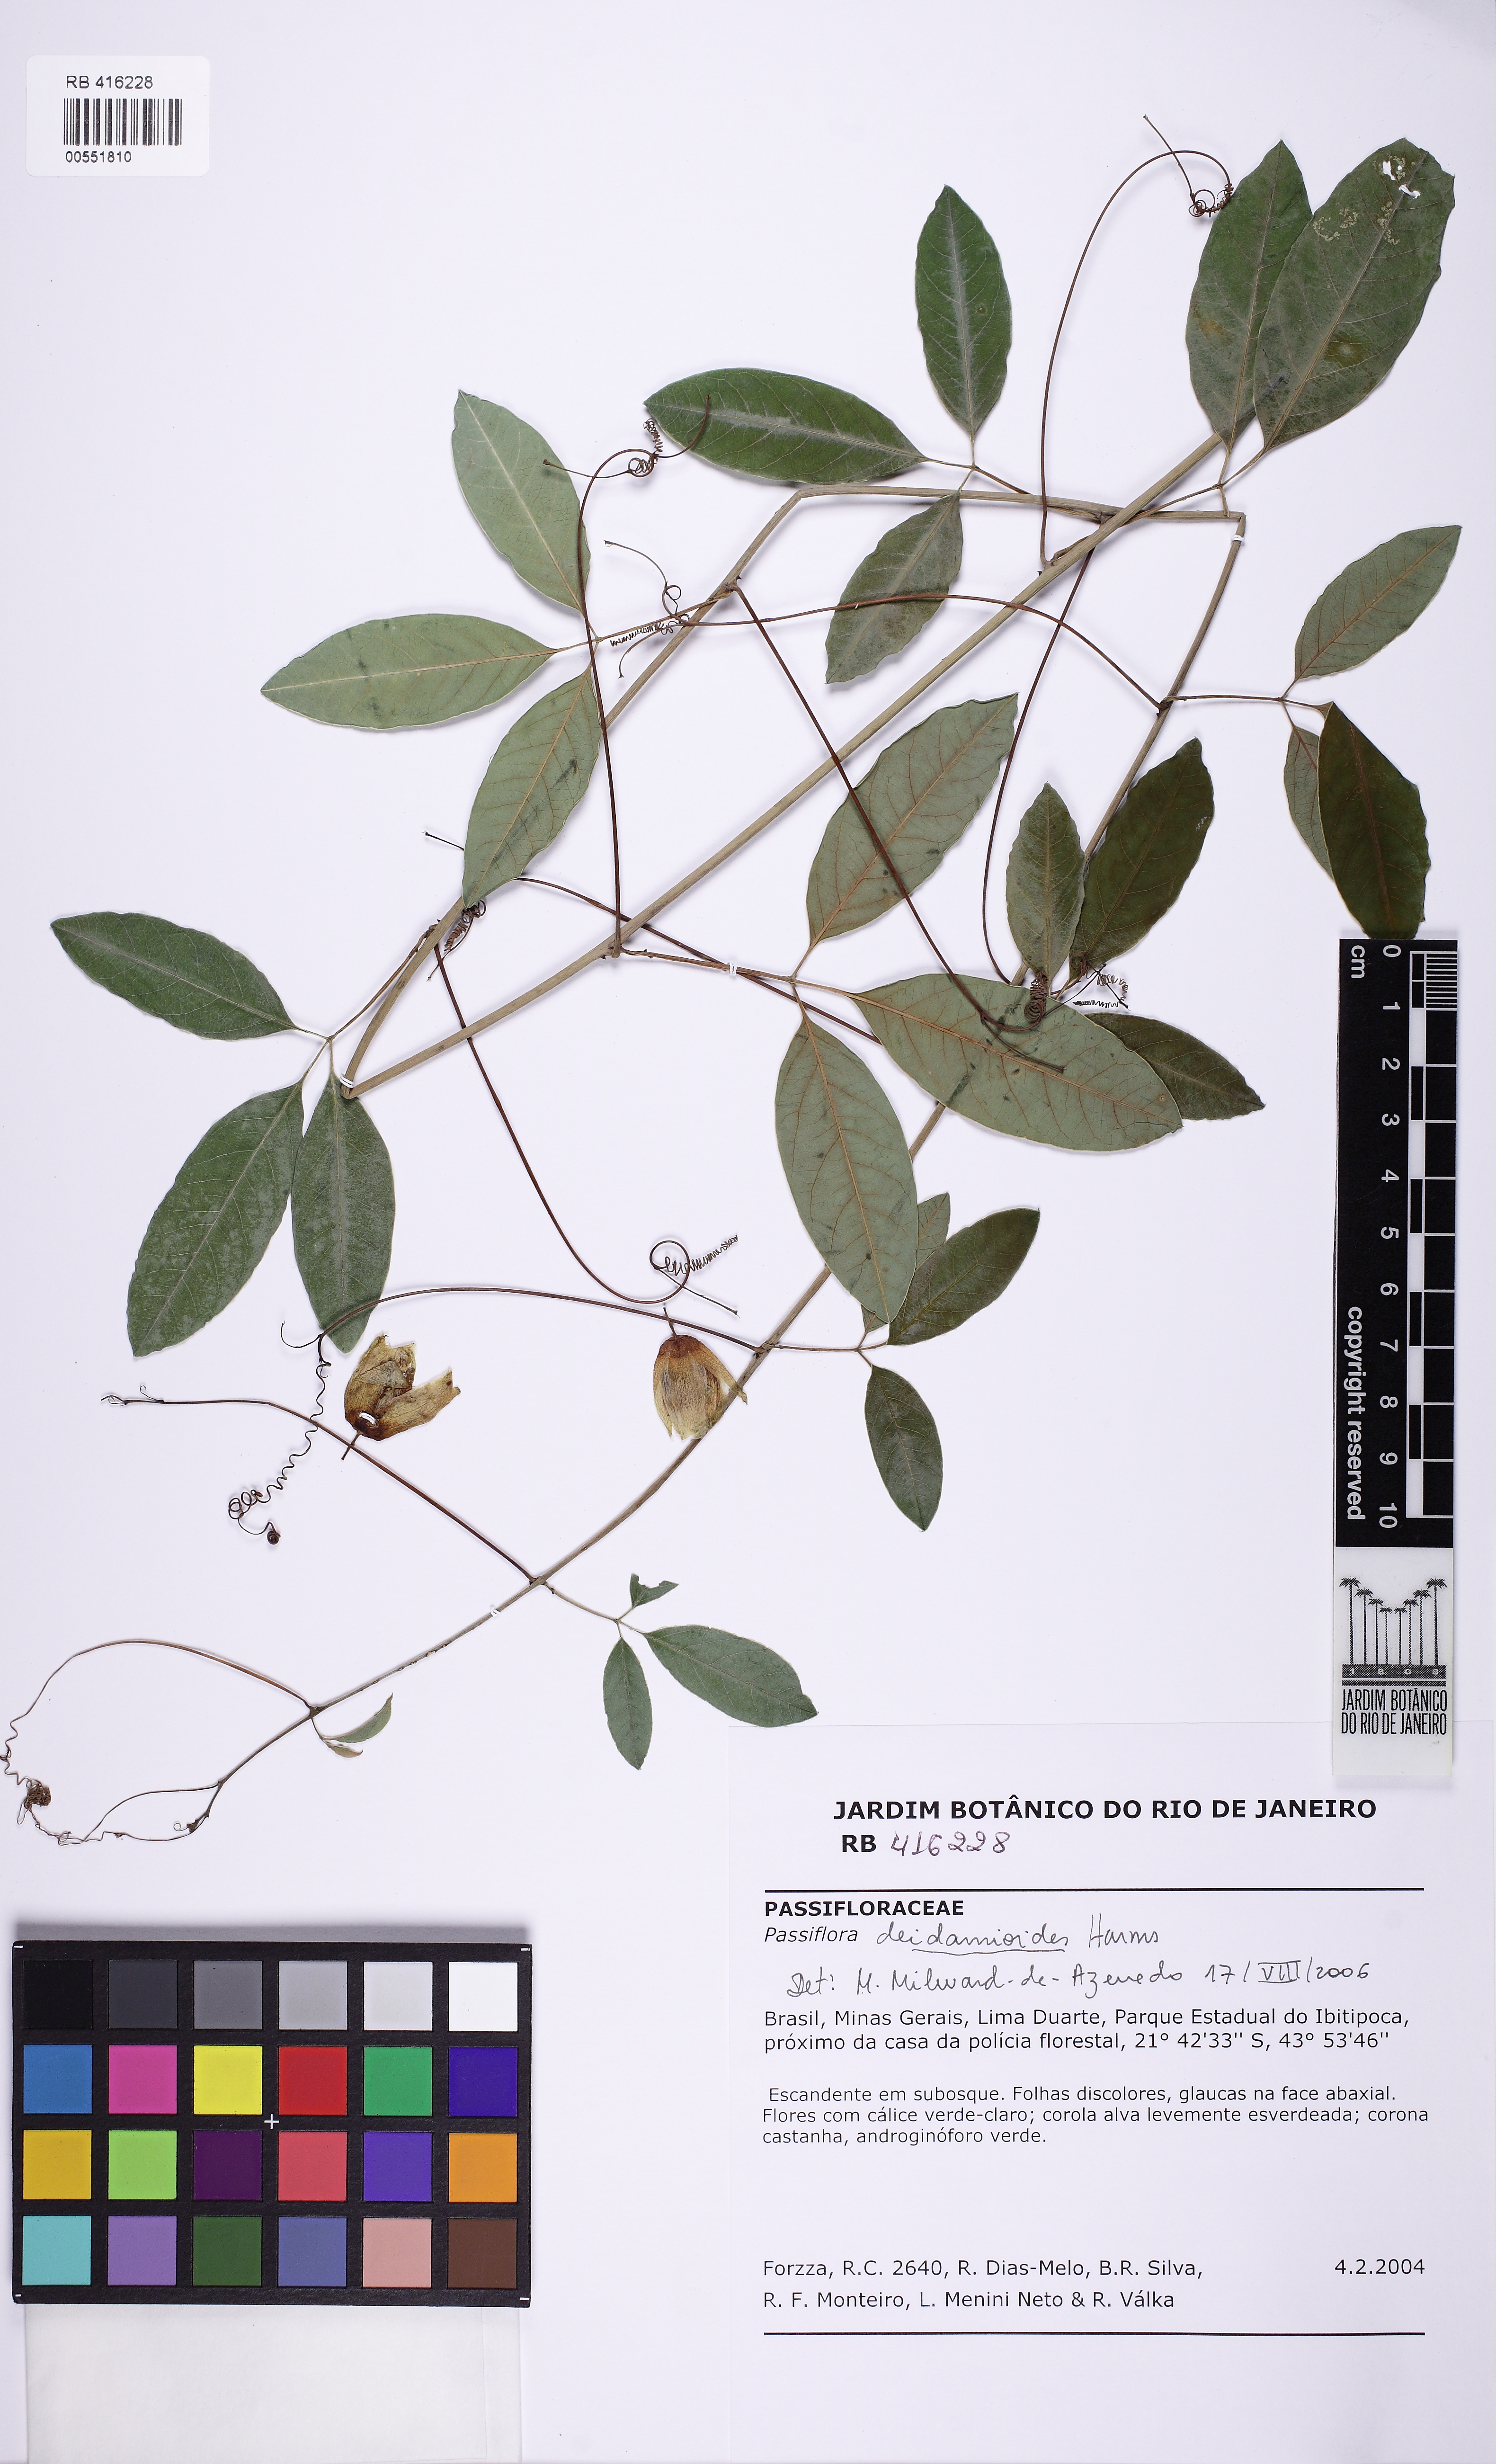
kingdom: Plantae
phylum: Tracheophyta
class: Magnoliopsida
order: Malpighiales
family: Passifloraceae
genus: Passiflora
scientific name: Passiflora deidamioides
